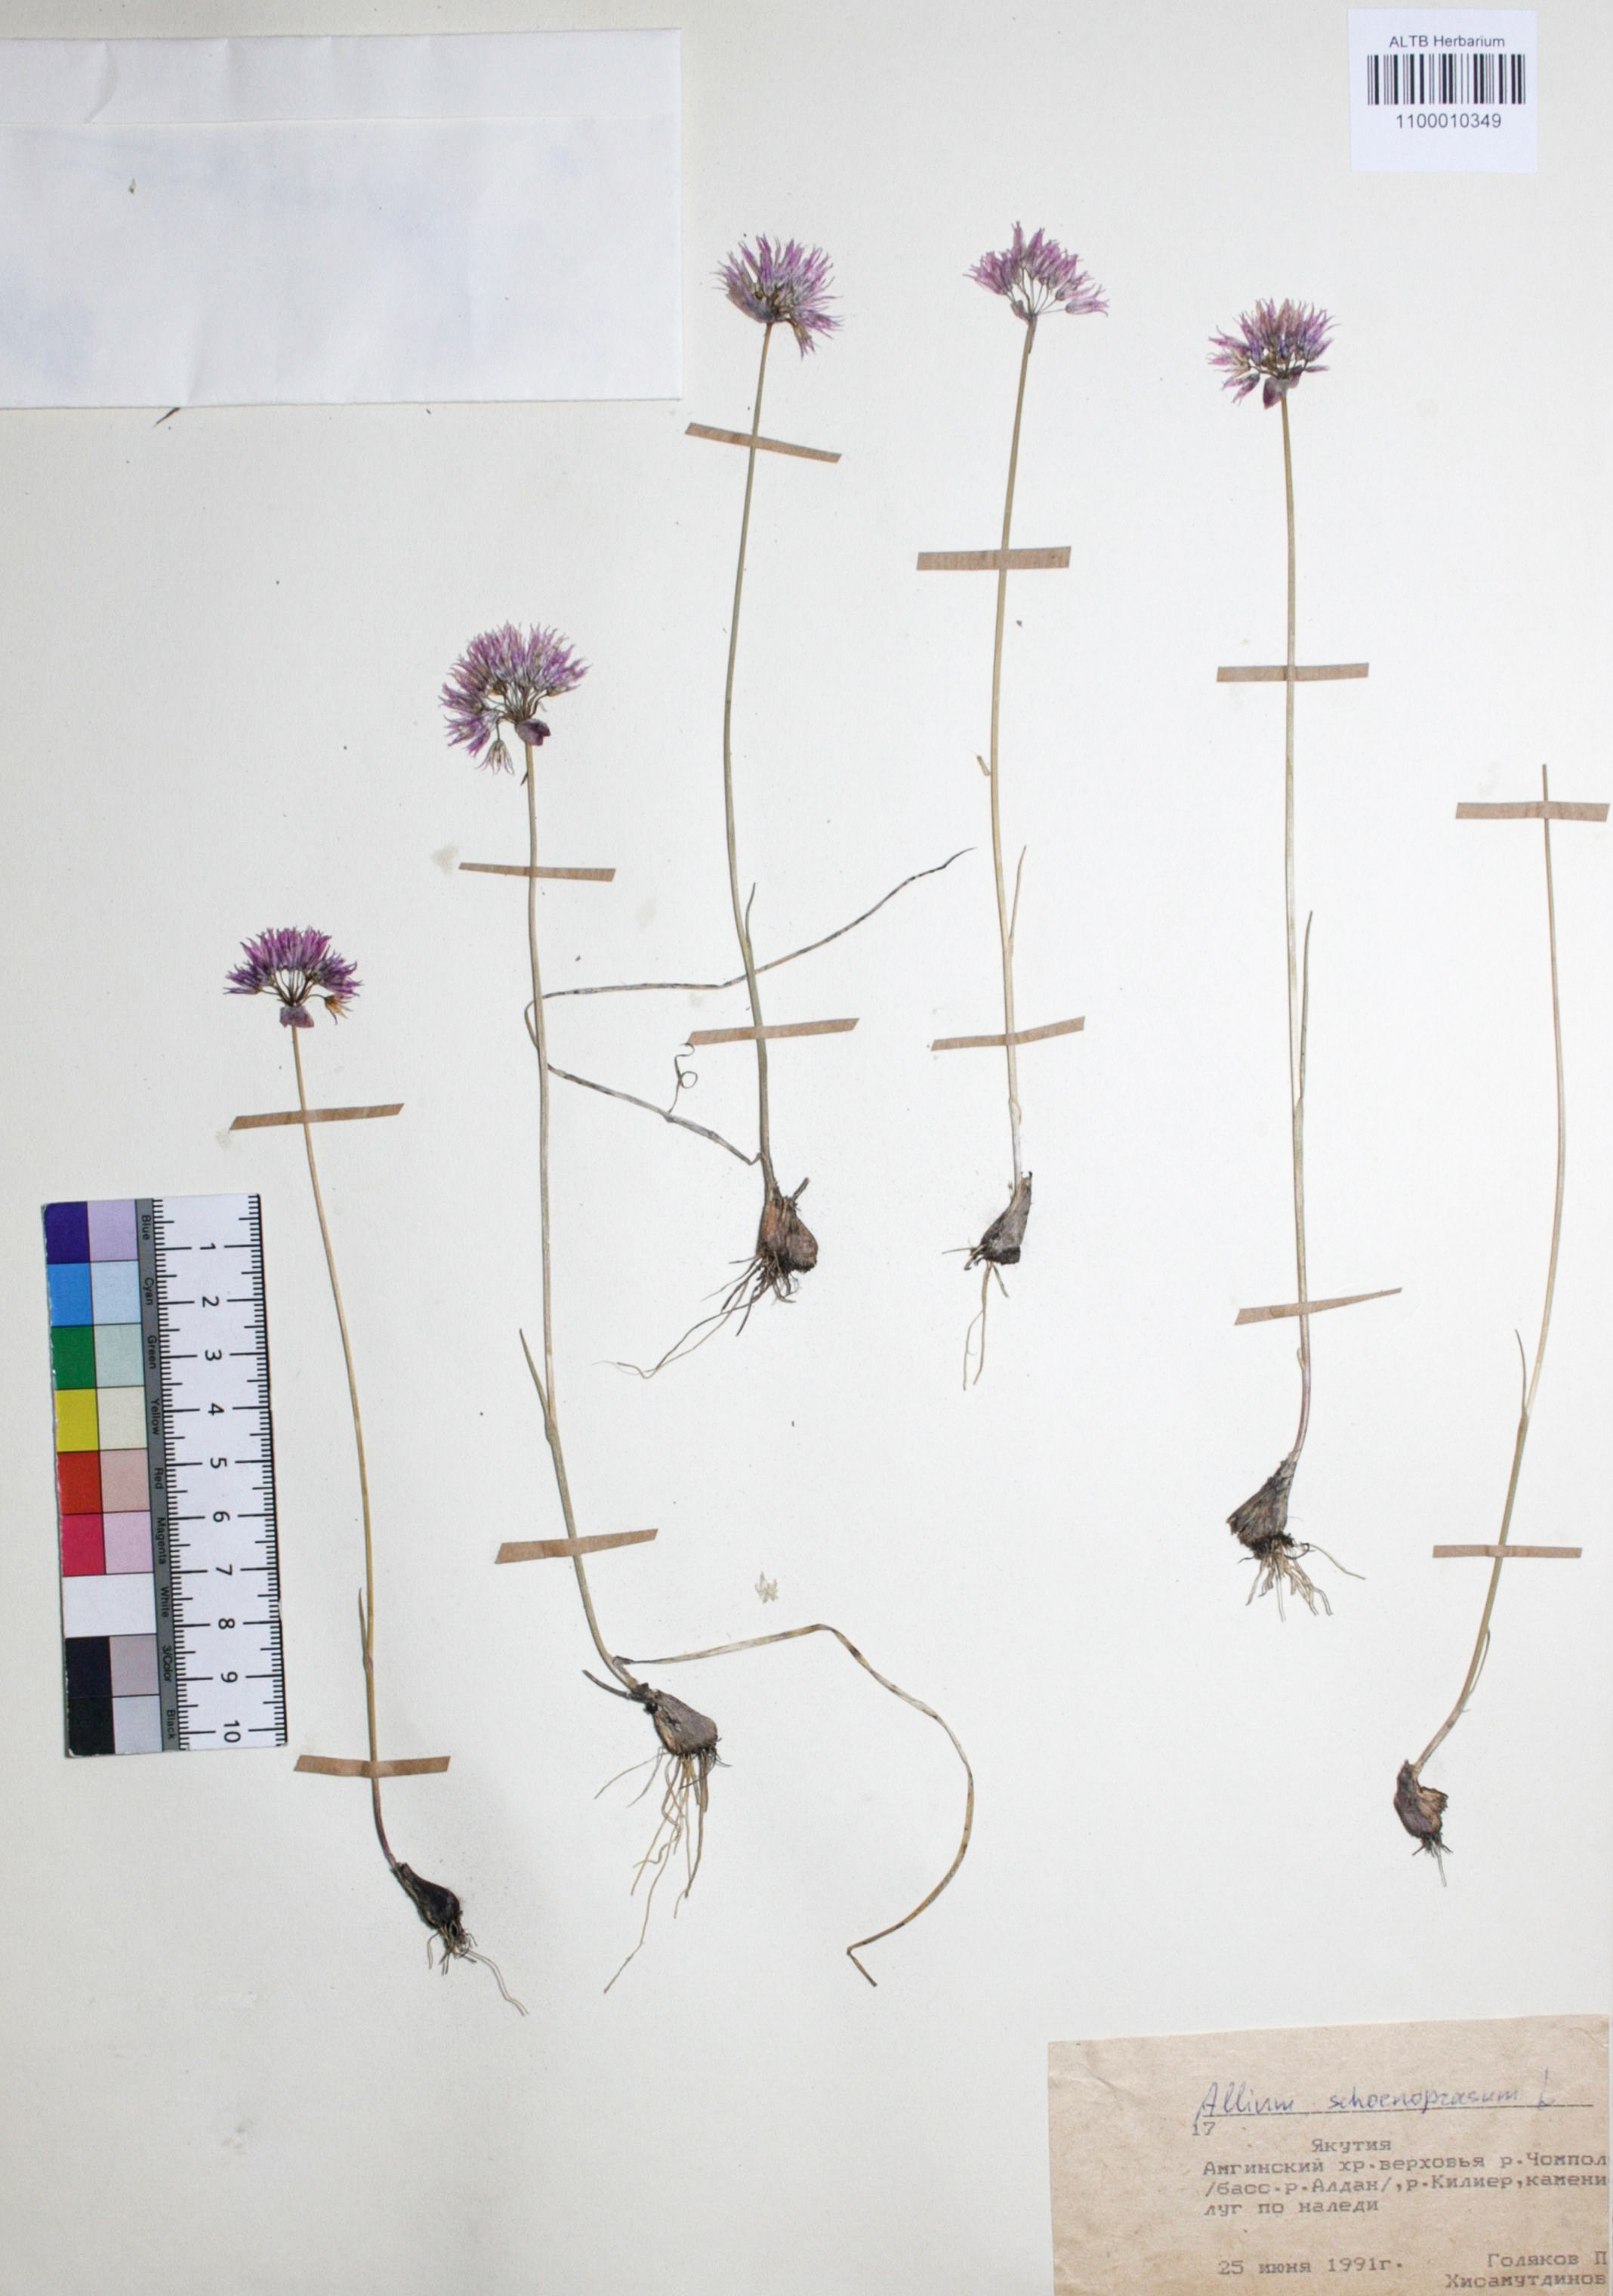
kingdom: Plantae
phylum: Tracheophyta
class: Liliopsida
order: Asparagales
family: Amaryllidaceae
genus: Allium
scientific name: Allium schoenoprasum
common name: Chives
